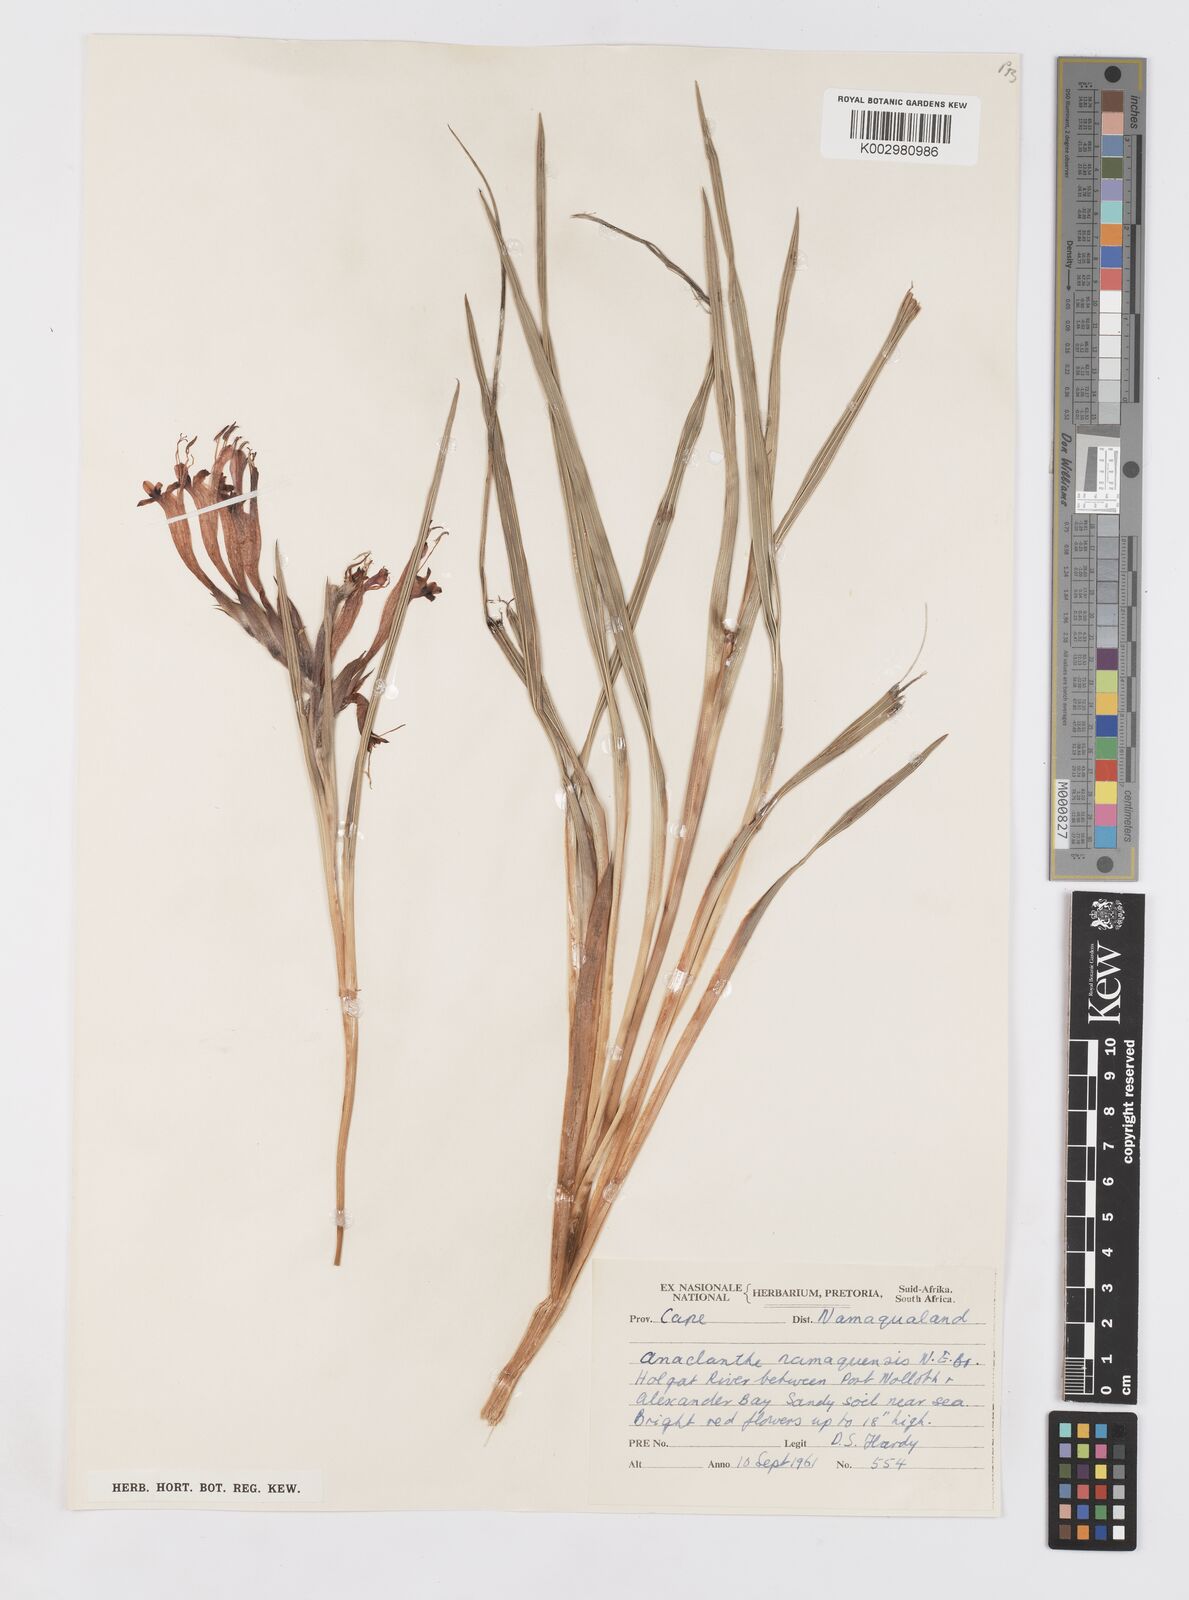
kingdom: Plantae
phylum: Tracheophyta
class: Liliopsida
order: Asparagales
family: Iridaceae
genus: Babiana
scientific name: Babiana
